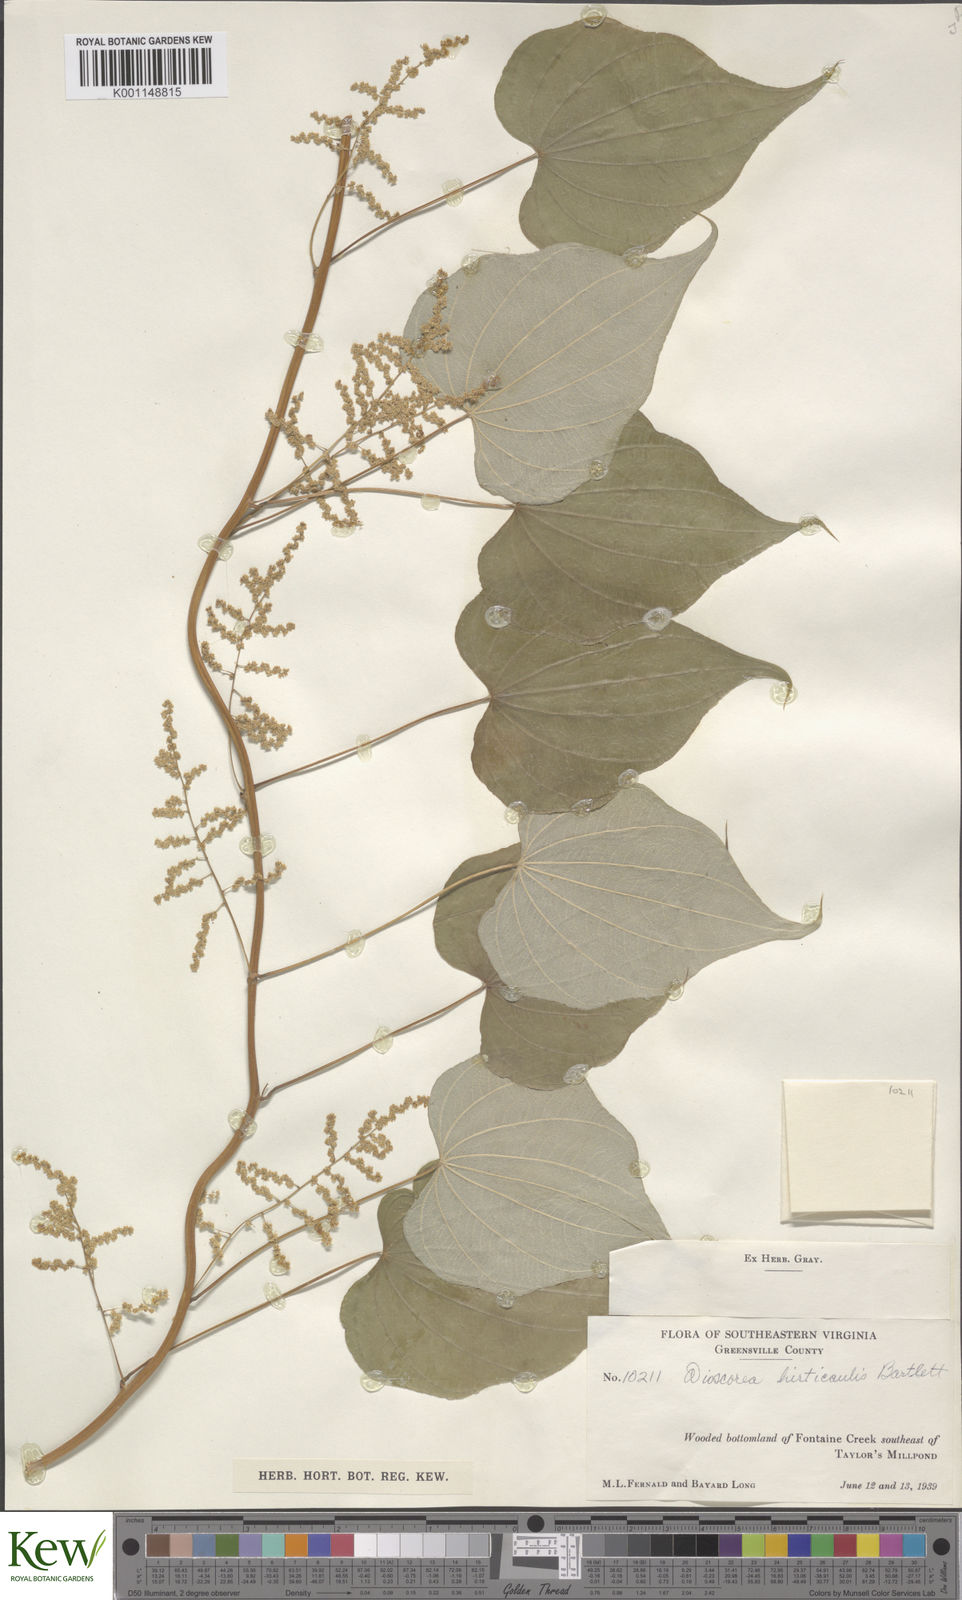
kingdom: Plantae
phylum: Tracheophyta
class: Liliopsida
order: Dioscoreales
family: Dioscoreaceae
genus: Dioscorea
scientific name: Dioscorea villosa
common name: Wild yam
